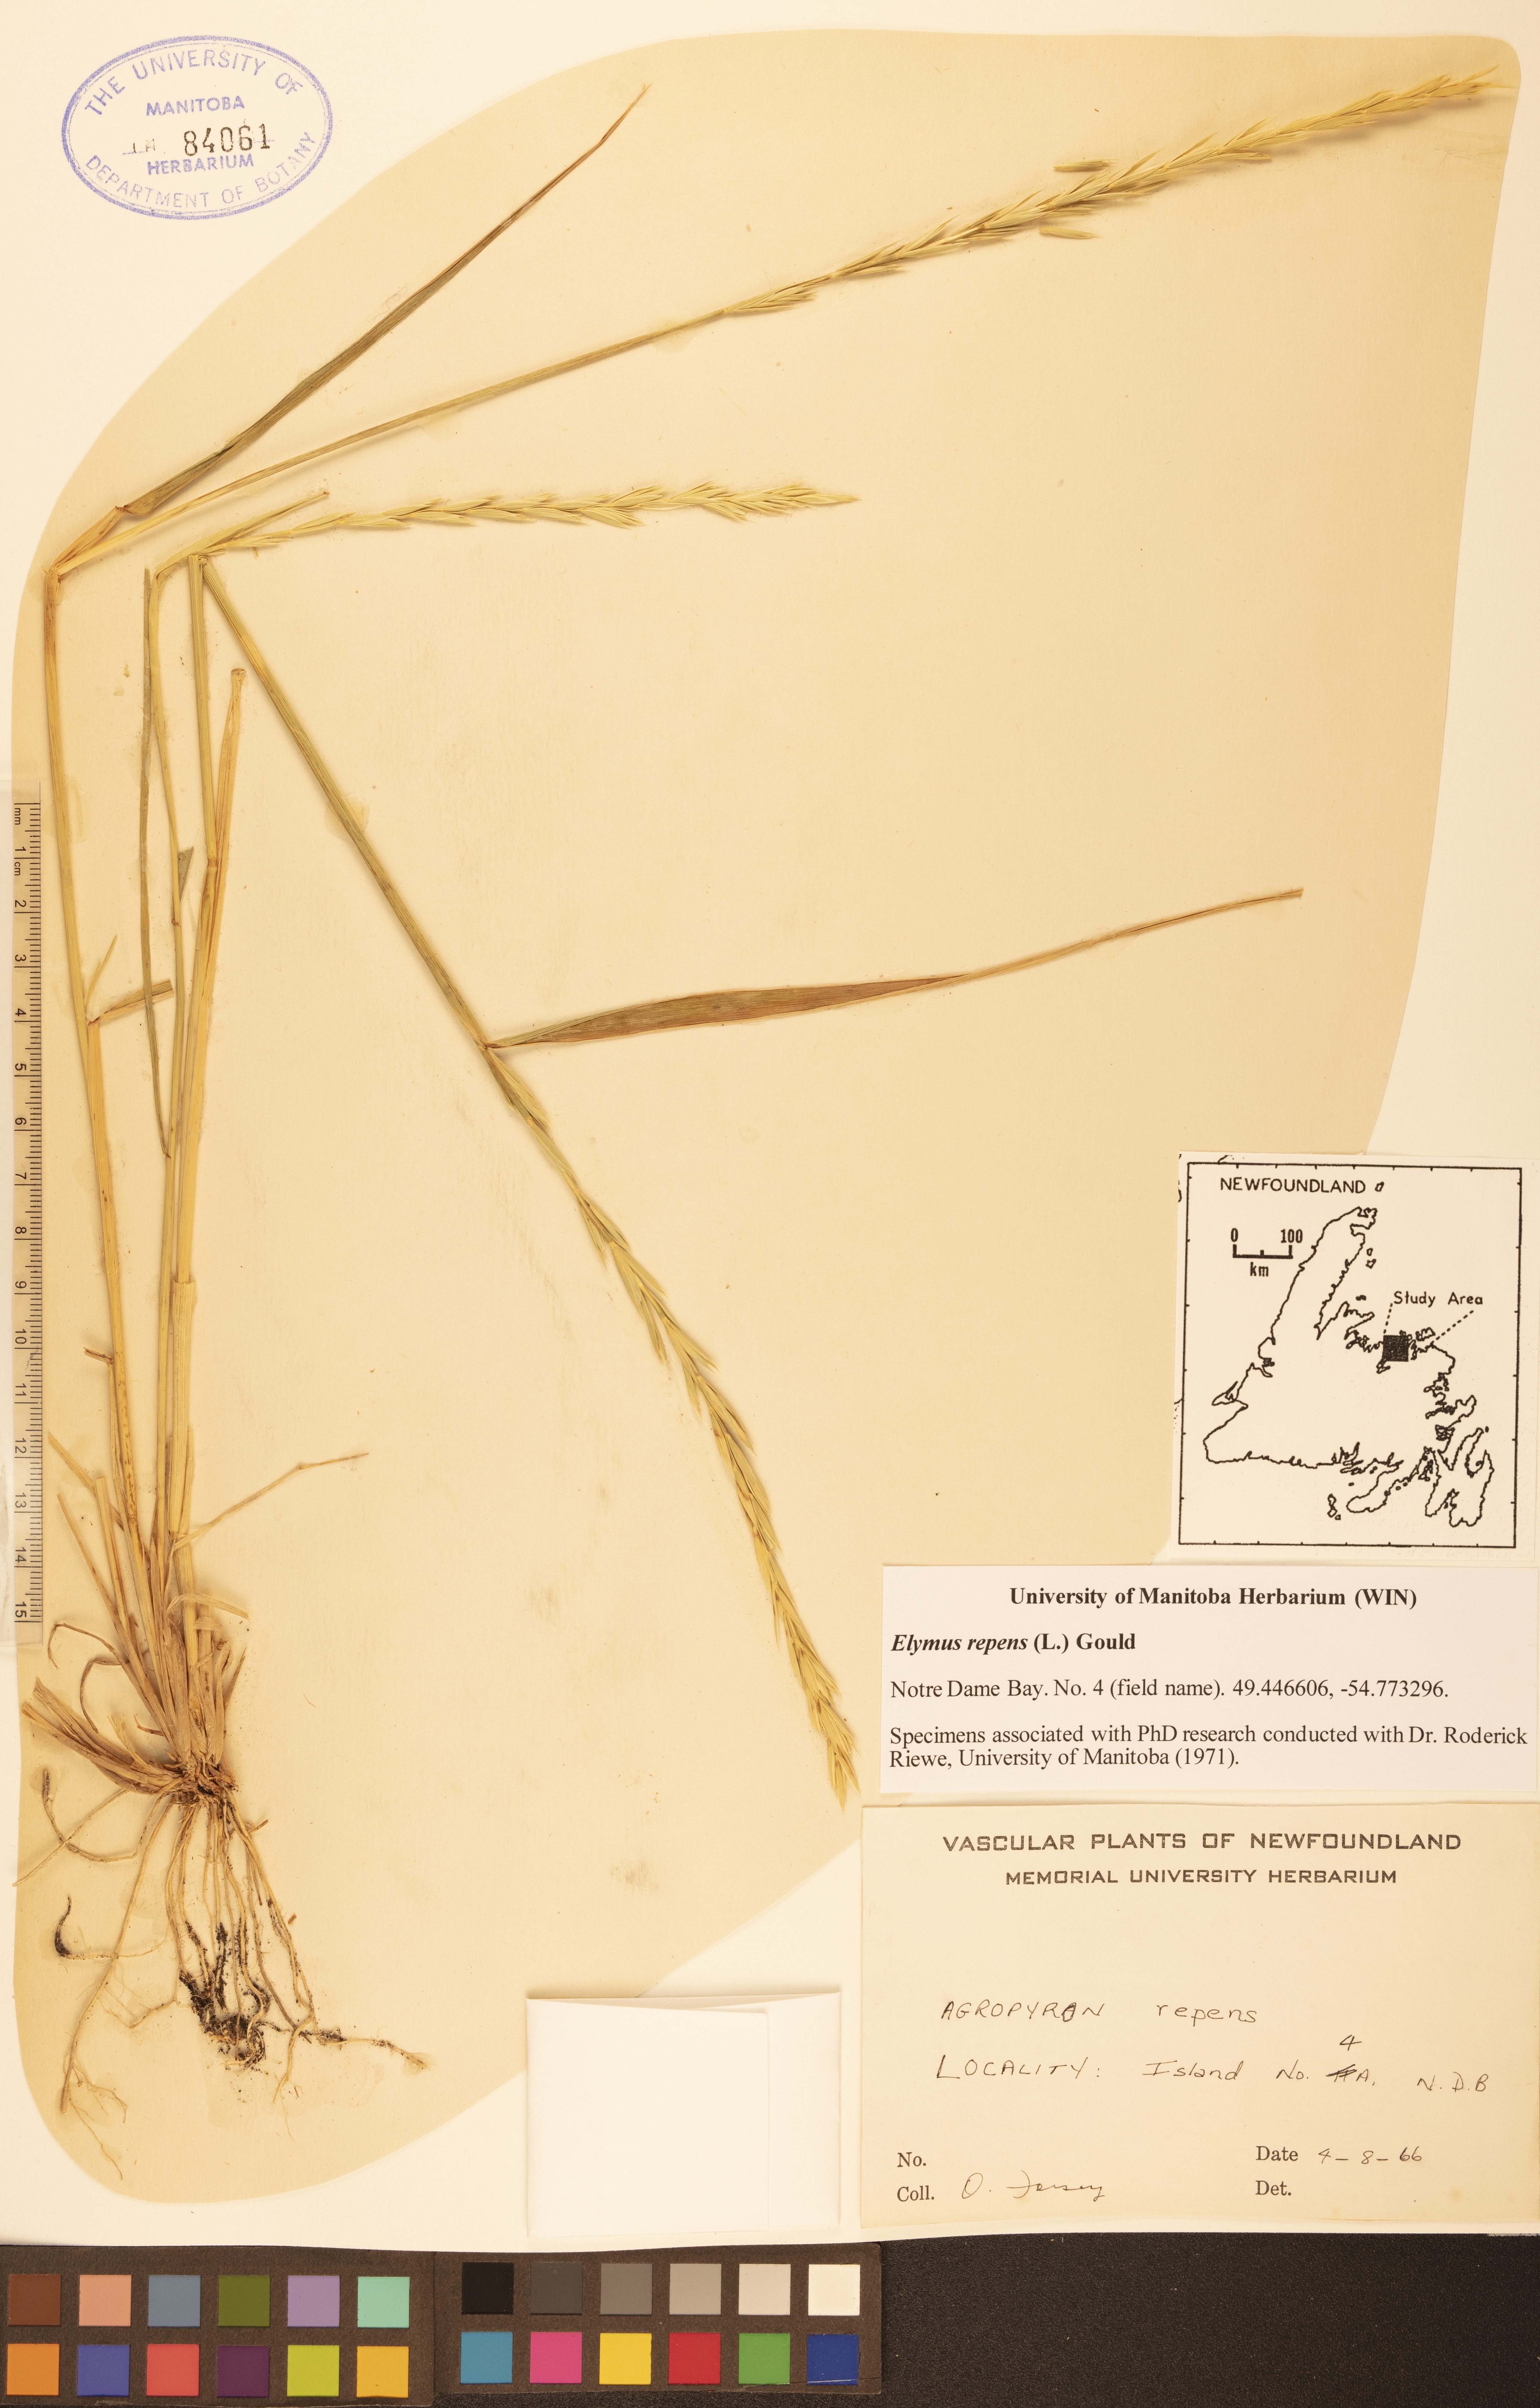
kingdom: Plantae
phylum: Tracheophyta
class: Liliopsida
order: Poales
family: Poaceae
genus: Elymus
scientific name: Elymus repens
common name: Quackgrass
